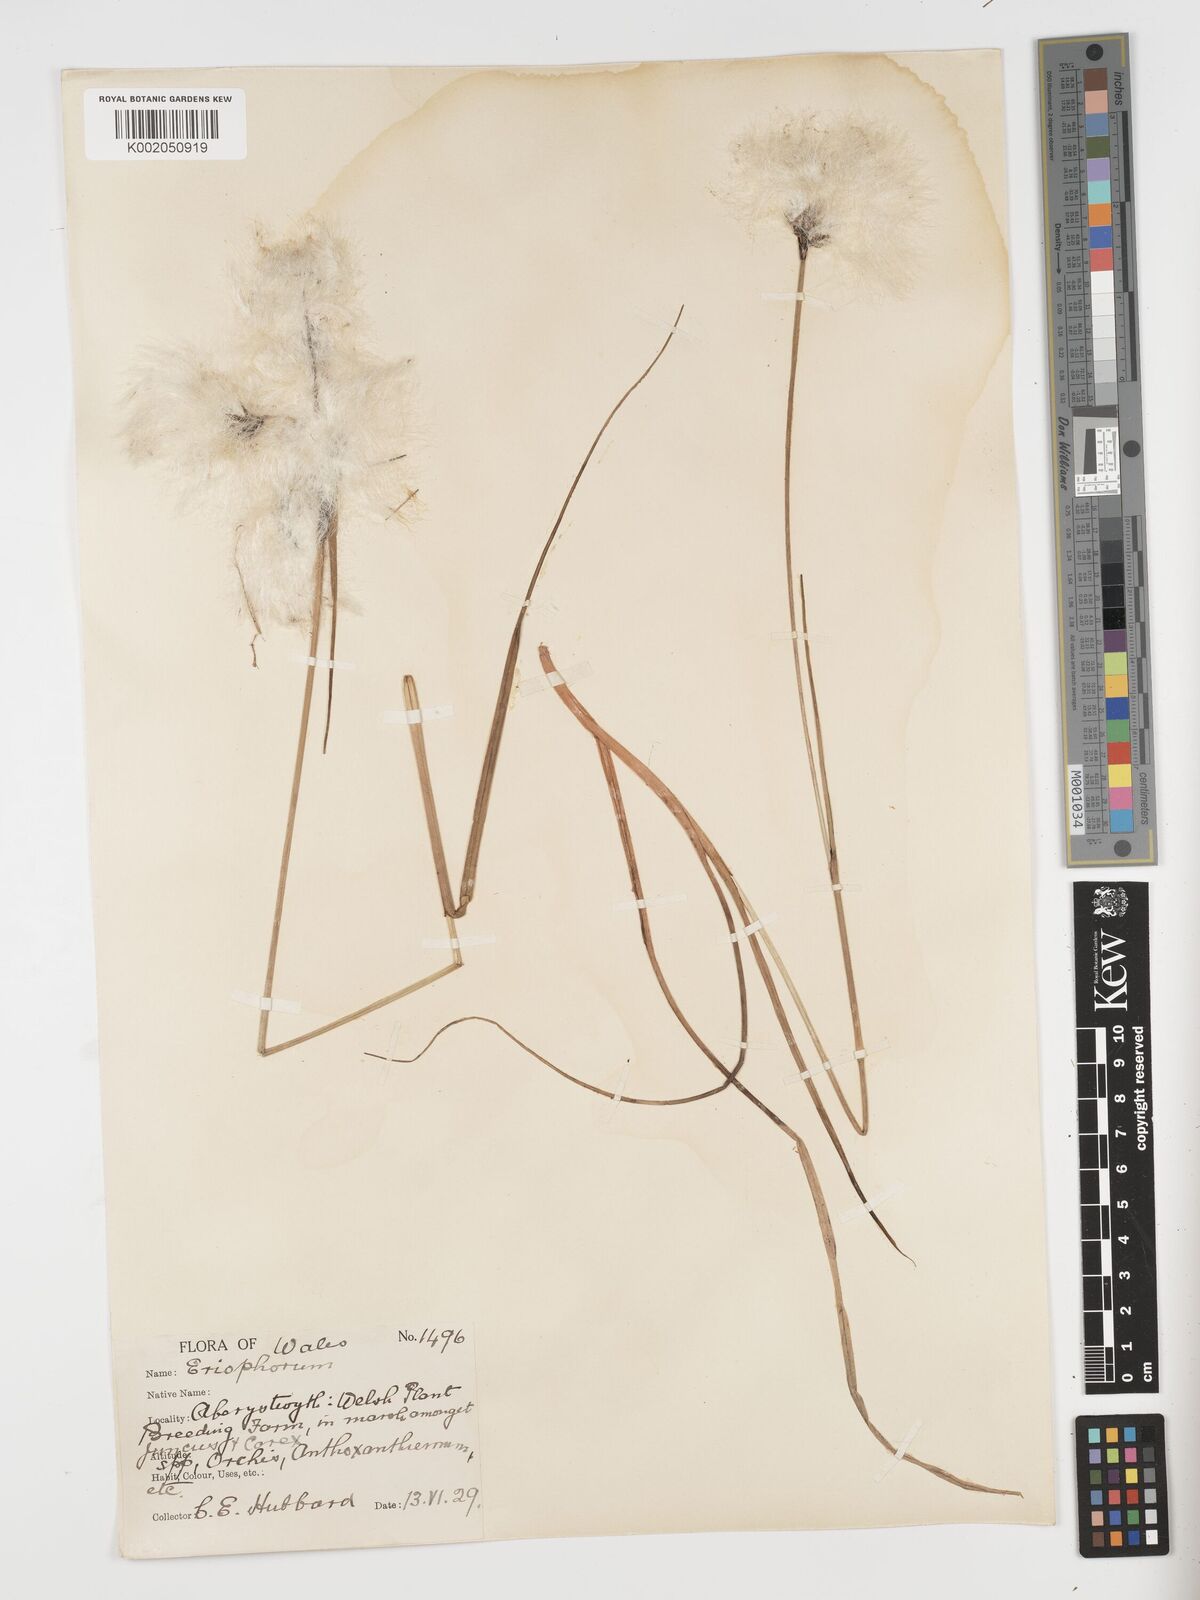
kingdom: Plantae
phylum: Tracheophyta
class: Liliopsida
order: Poales
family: Cyperaceae
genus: Eriophorum
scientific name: Eriophorum angustifolium
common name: Common cottongrass
